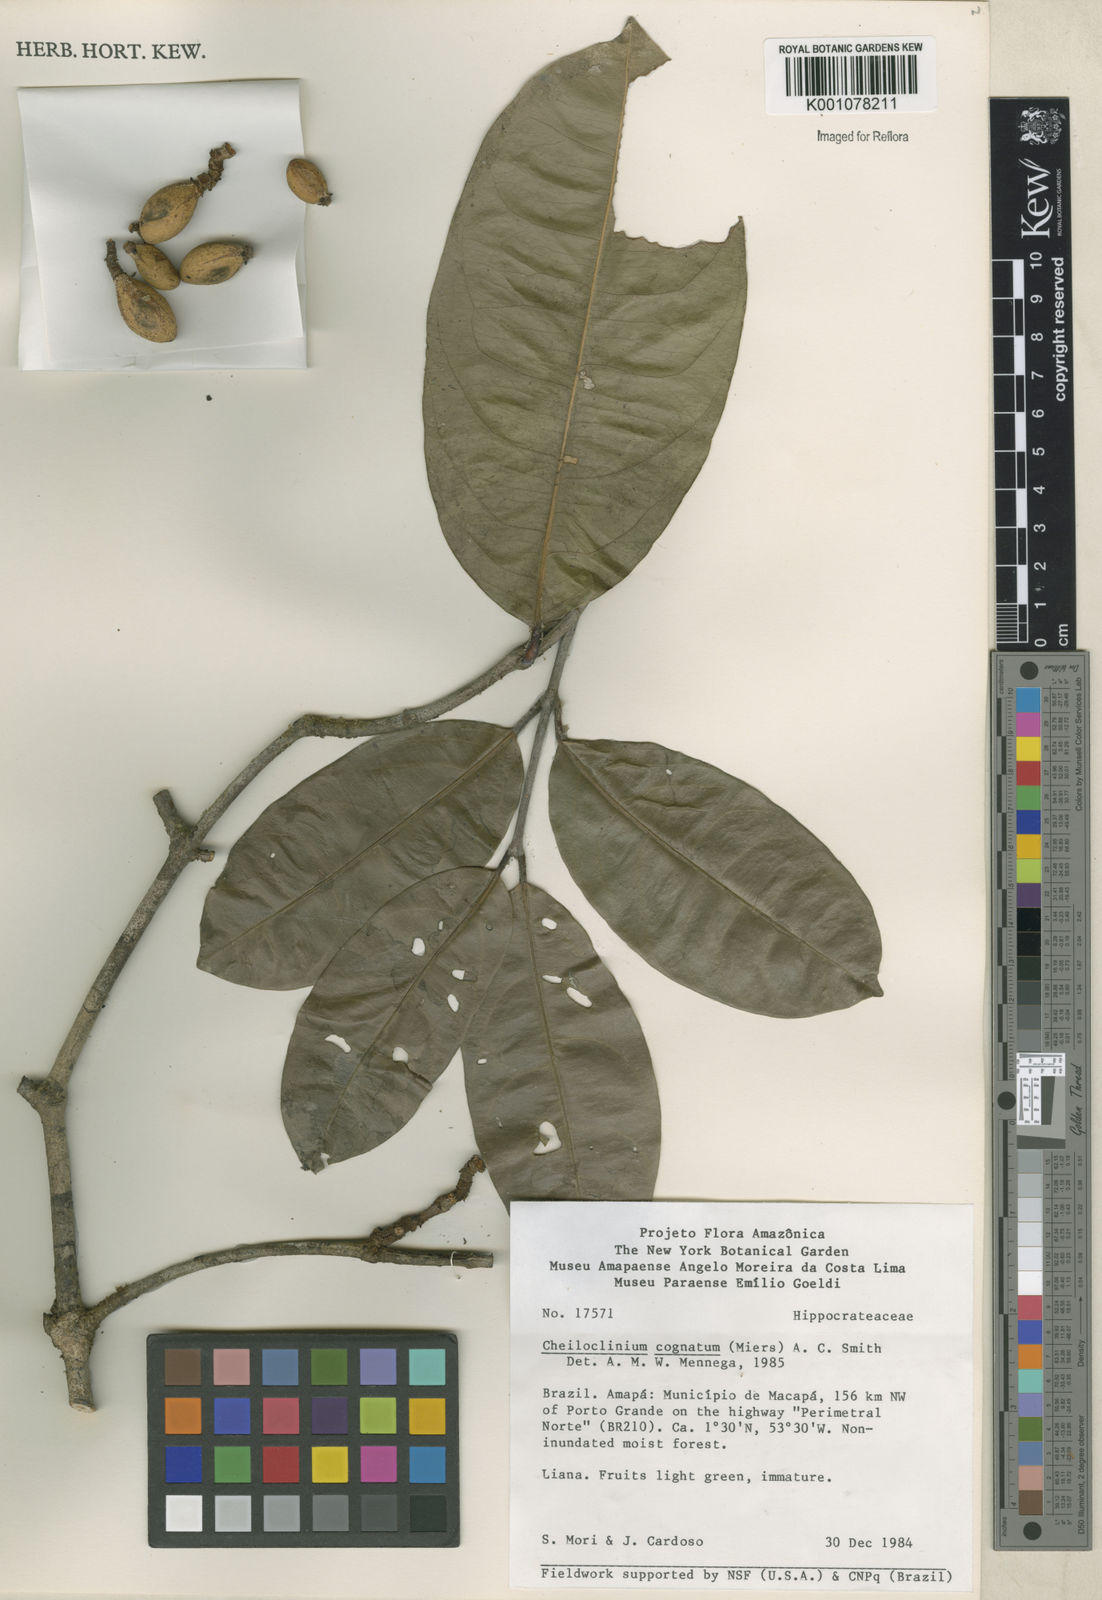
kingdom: Plantae
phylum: Tracheophyta
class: Magnoliopsida
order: Celastrales
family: Celastraceae
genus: Cheiloclinium
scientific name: Cheiloclinium cognatum
